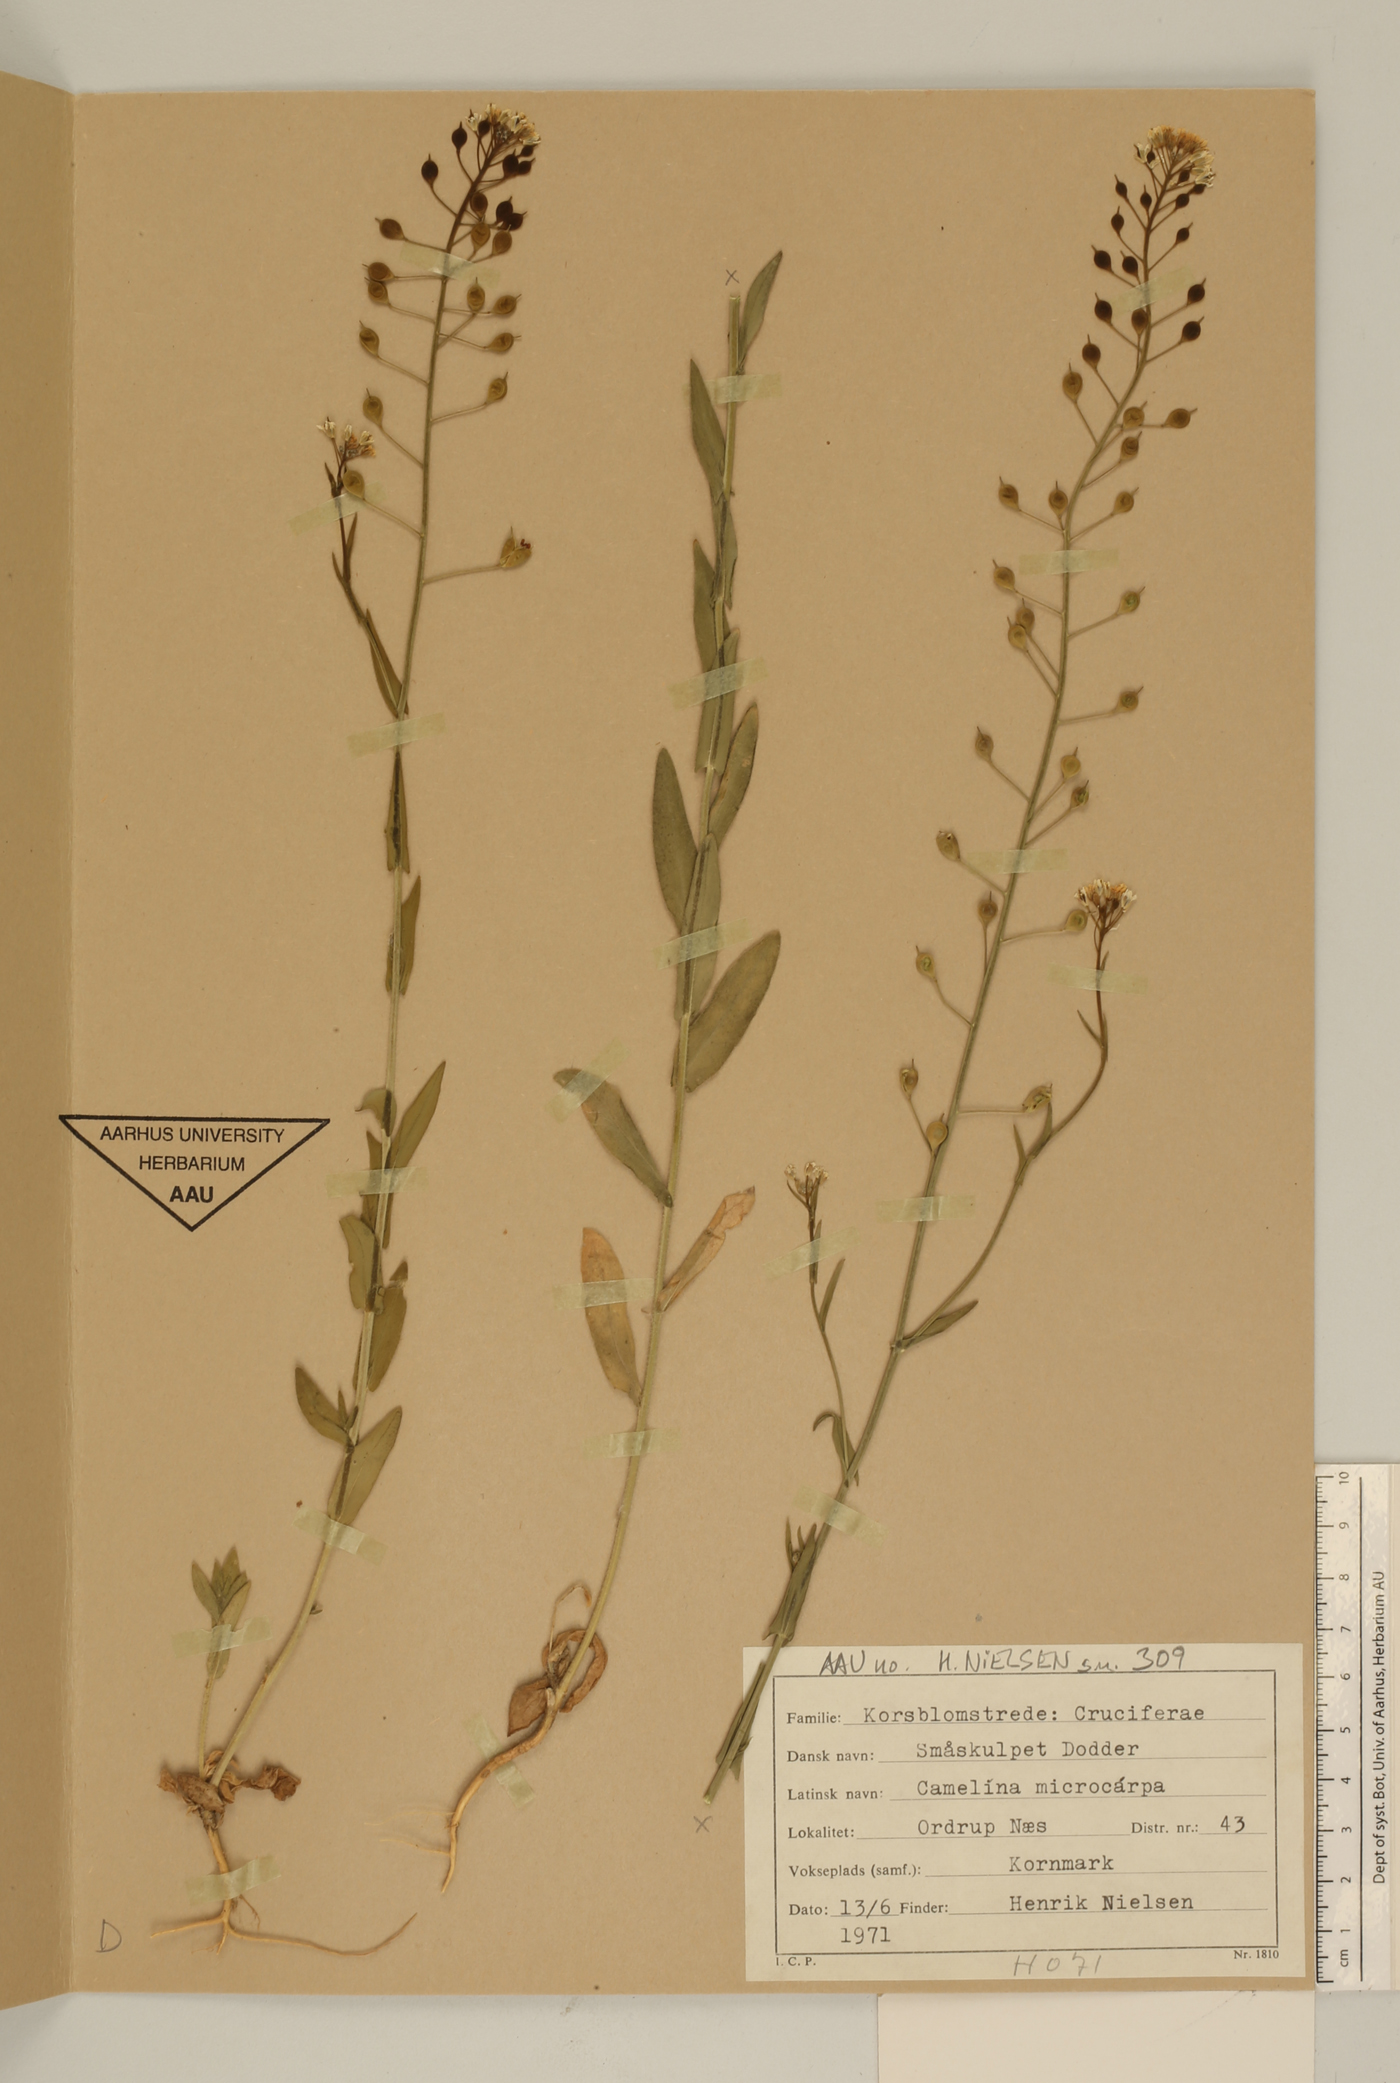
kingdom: Plantae
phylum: Tracheophyta
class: Magnoliopsida
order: Brassicales
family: Brassicaceae
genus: Camelina
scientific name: Camelina microcarpa
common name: Lesser gold-of-pleasure
